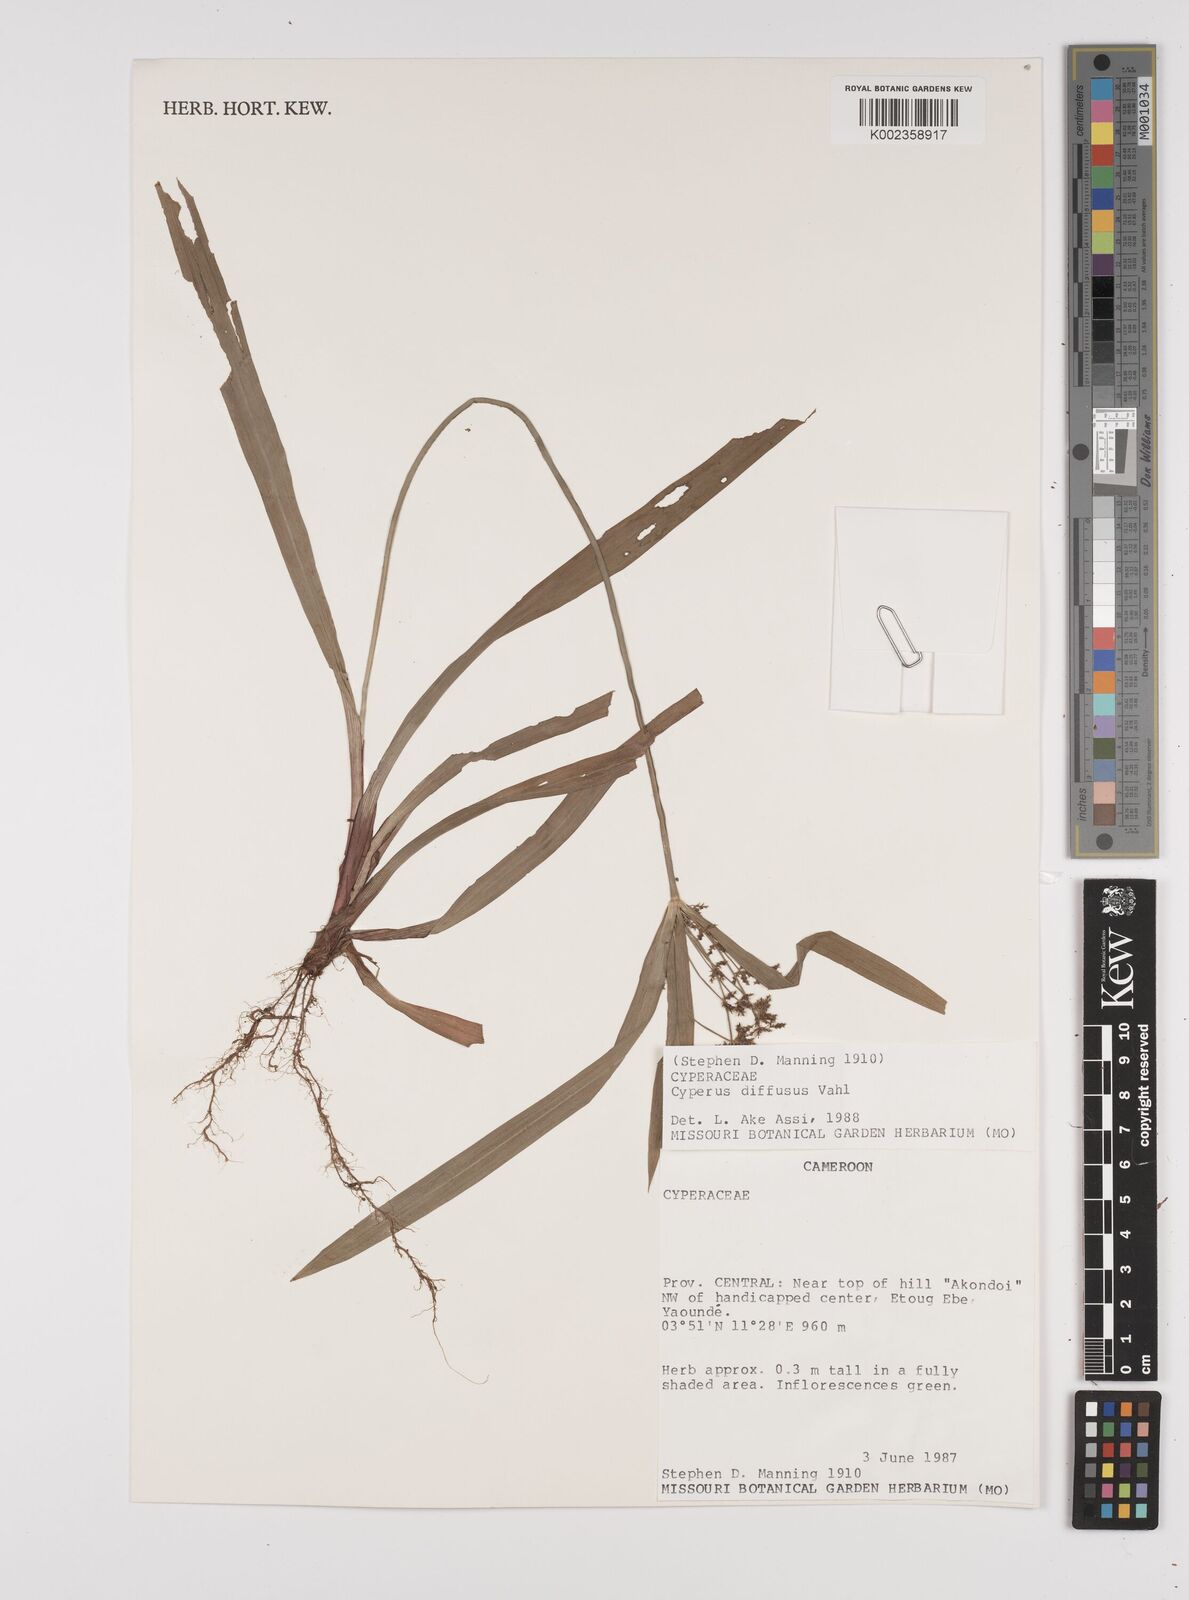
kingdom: Plantae
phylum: Tracheophyta
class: Liliopsida
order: Poales
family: Cyperaceae
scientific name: Cyperaceae
